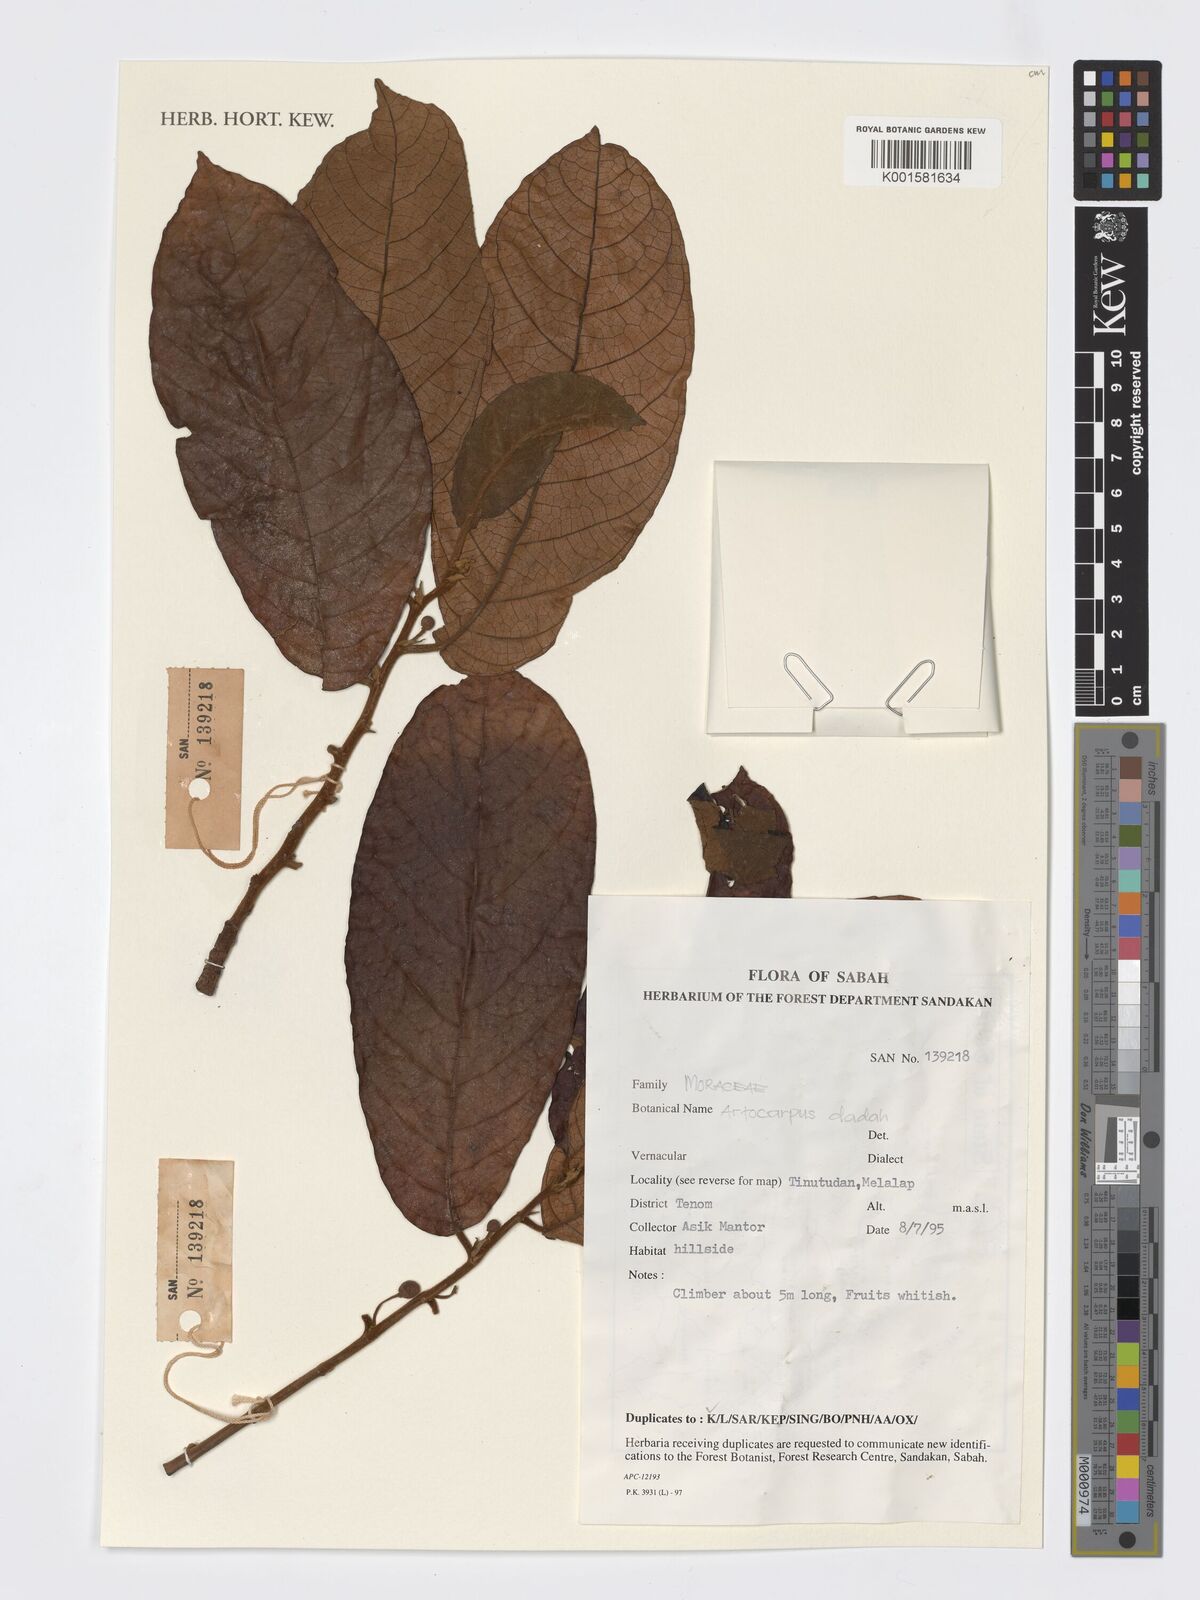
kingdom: Plantae
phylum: Tracheophyta
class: Magnoliopsida
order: Rosales
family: Moraceae
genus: Artocarpus
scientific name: Artocarpus lacucha
